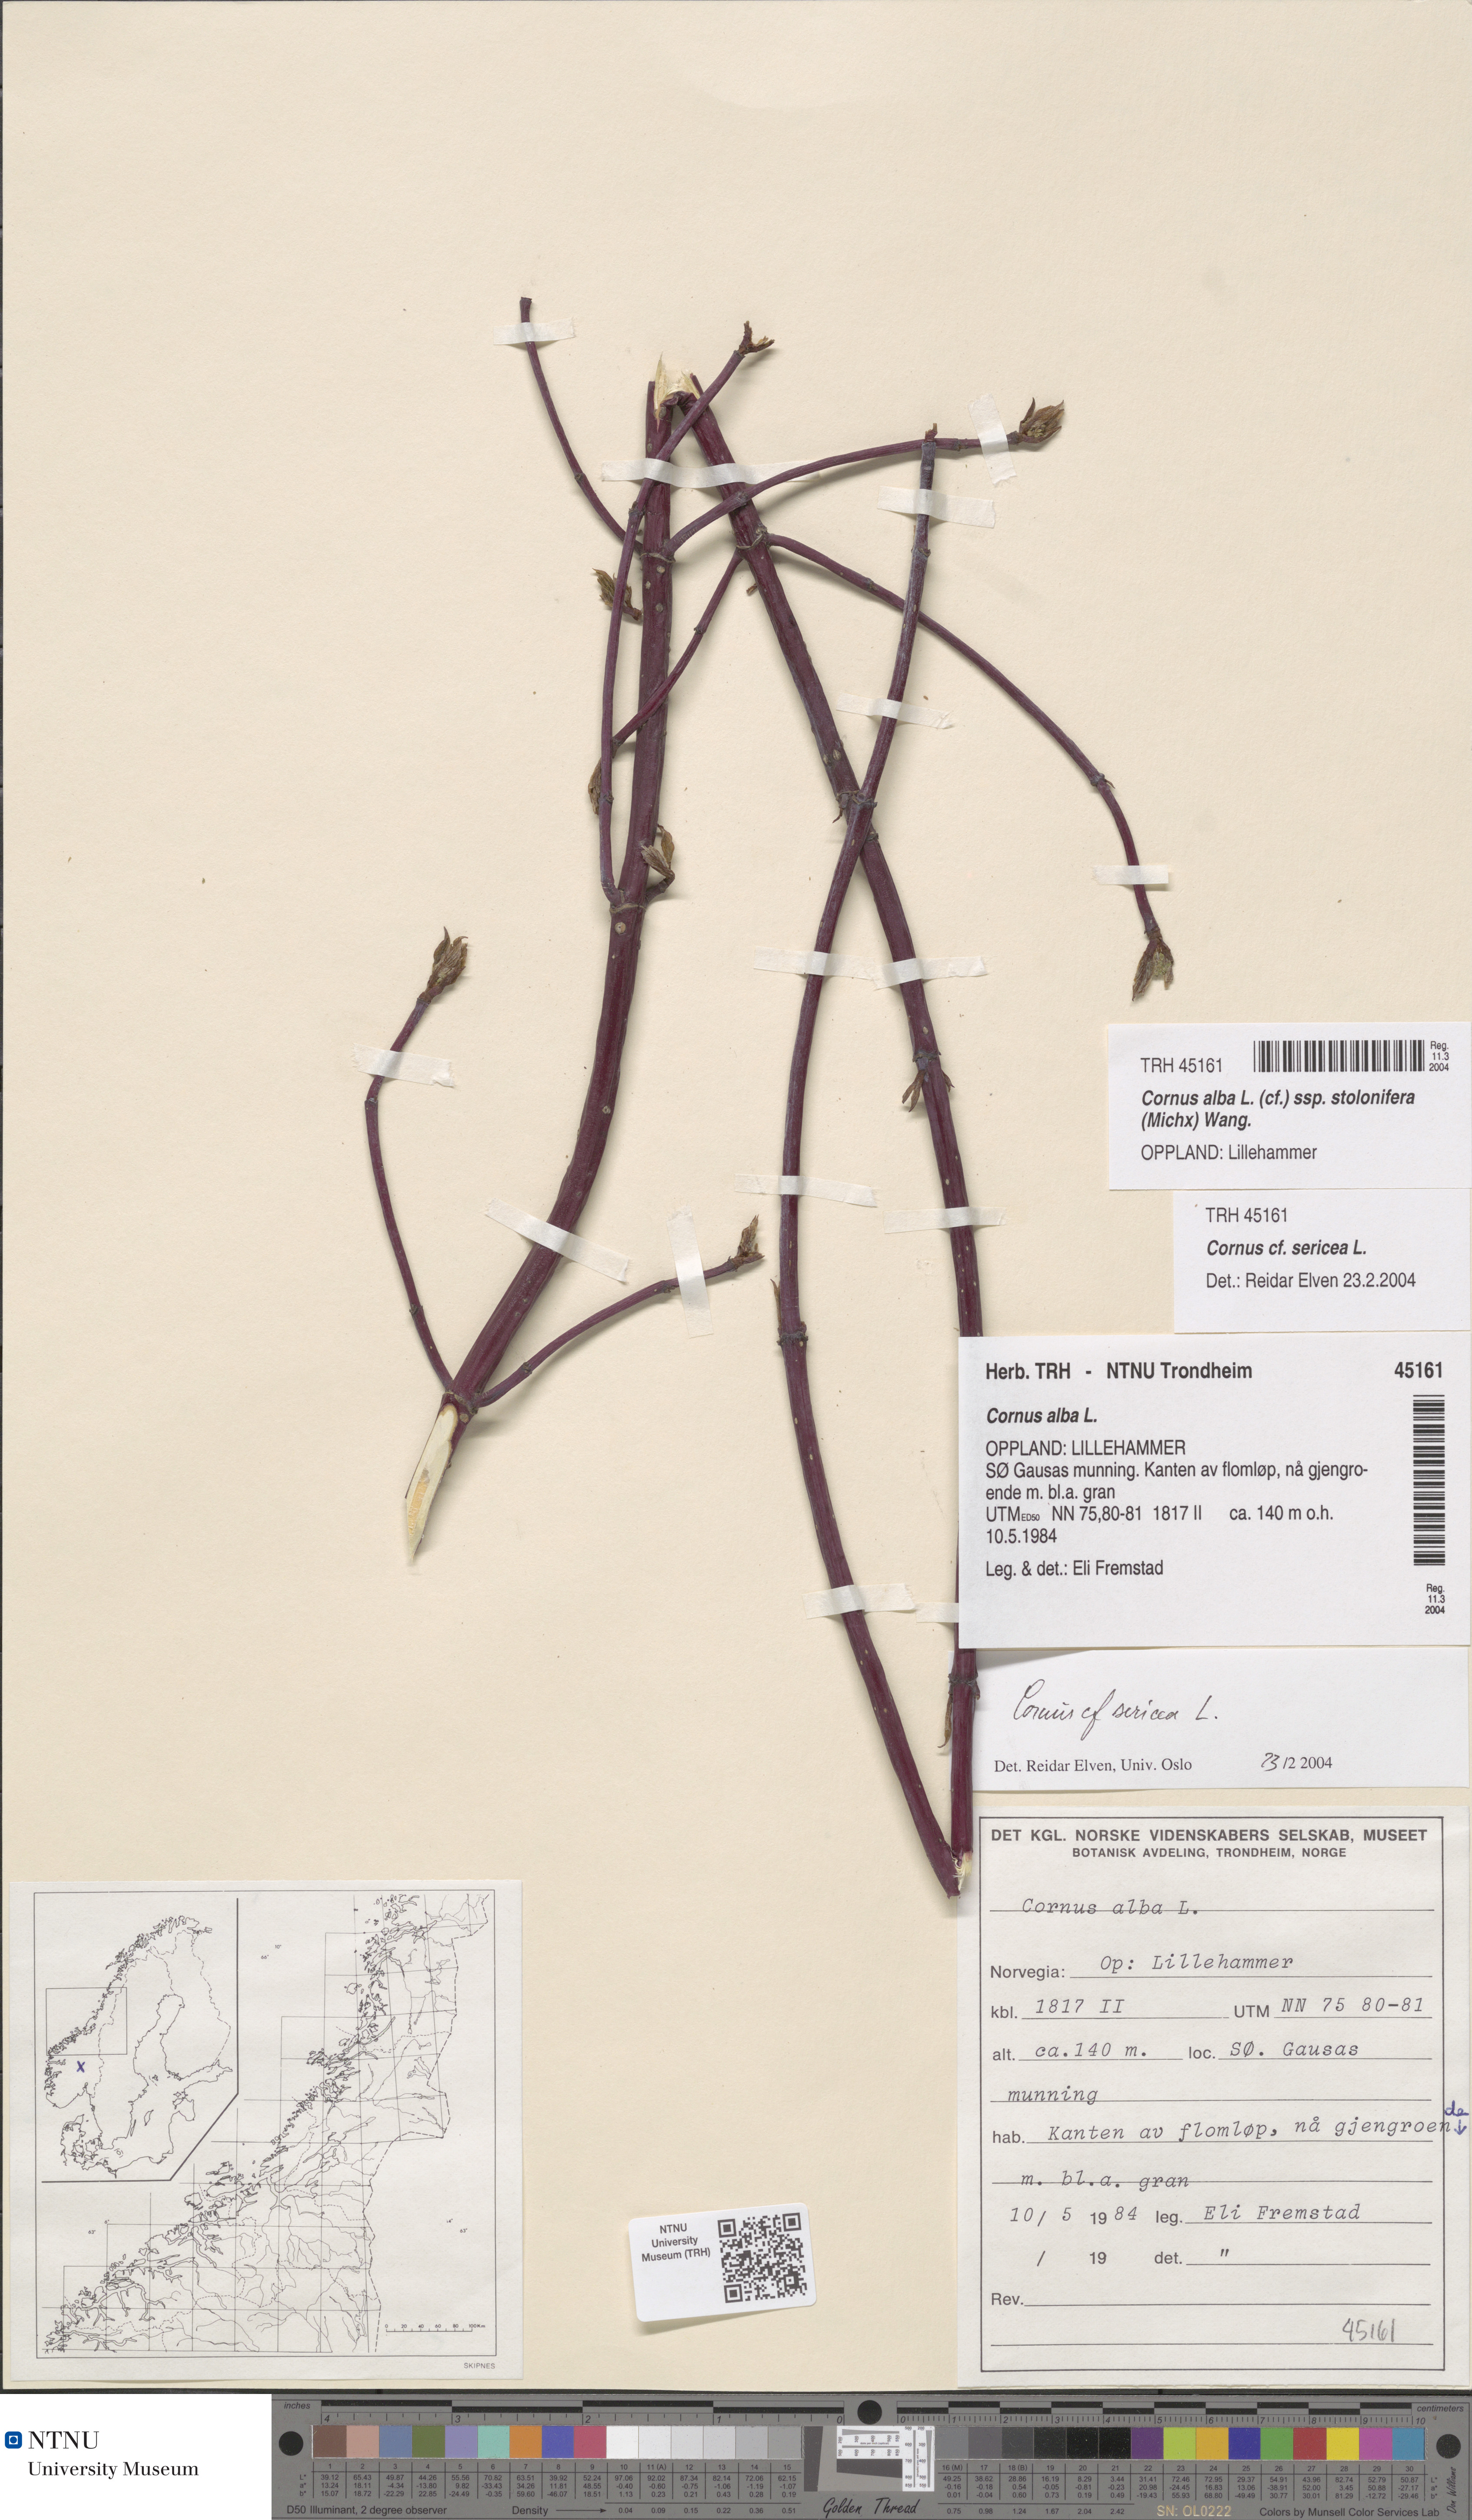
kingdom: Plantae
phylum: Tracheophyta
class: Magnoliopsida
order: Cornales
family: Cornaceae
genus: Cornus
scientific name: Cornus sericea
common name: Red-osier dogwood
